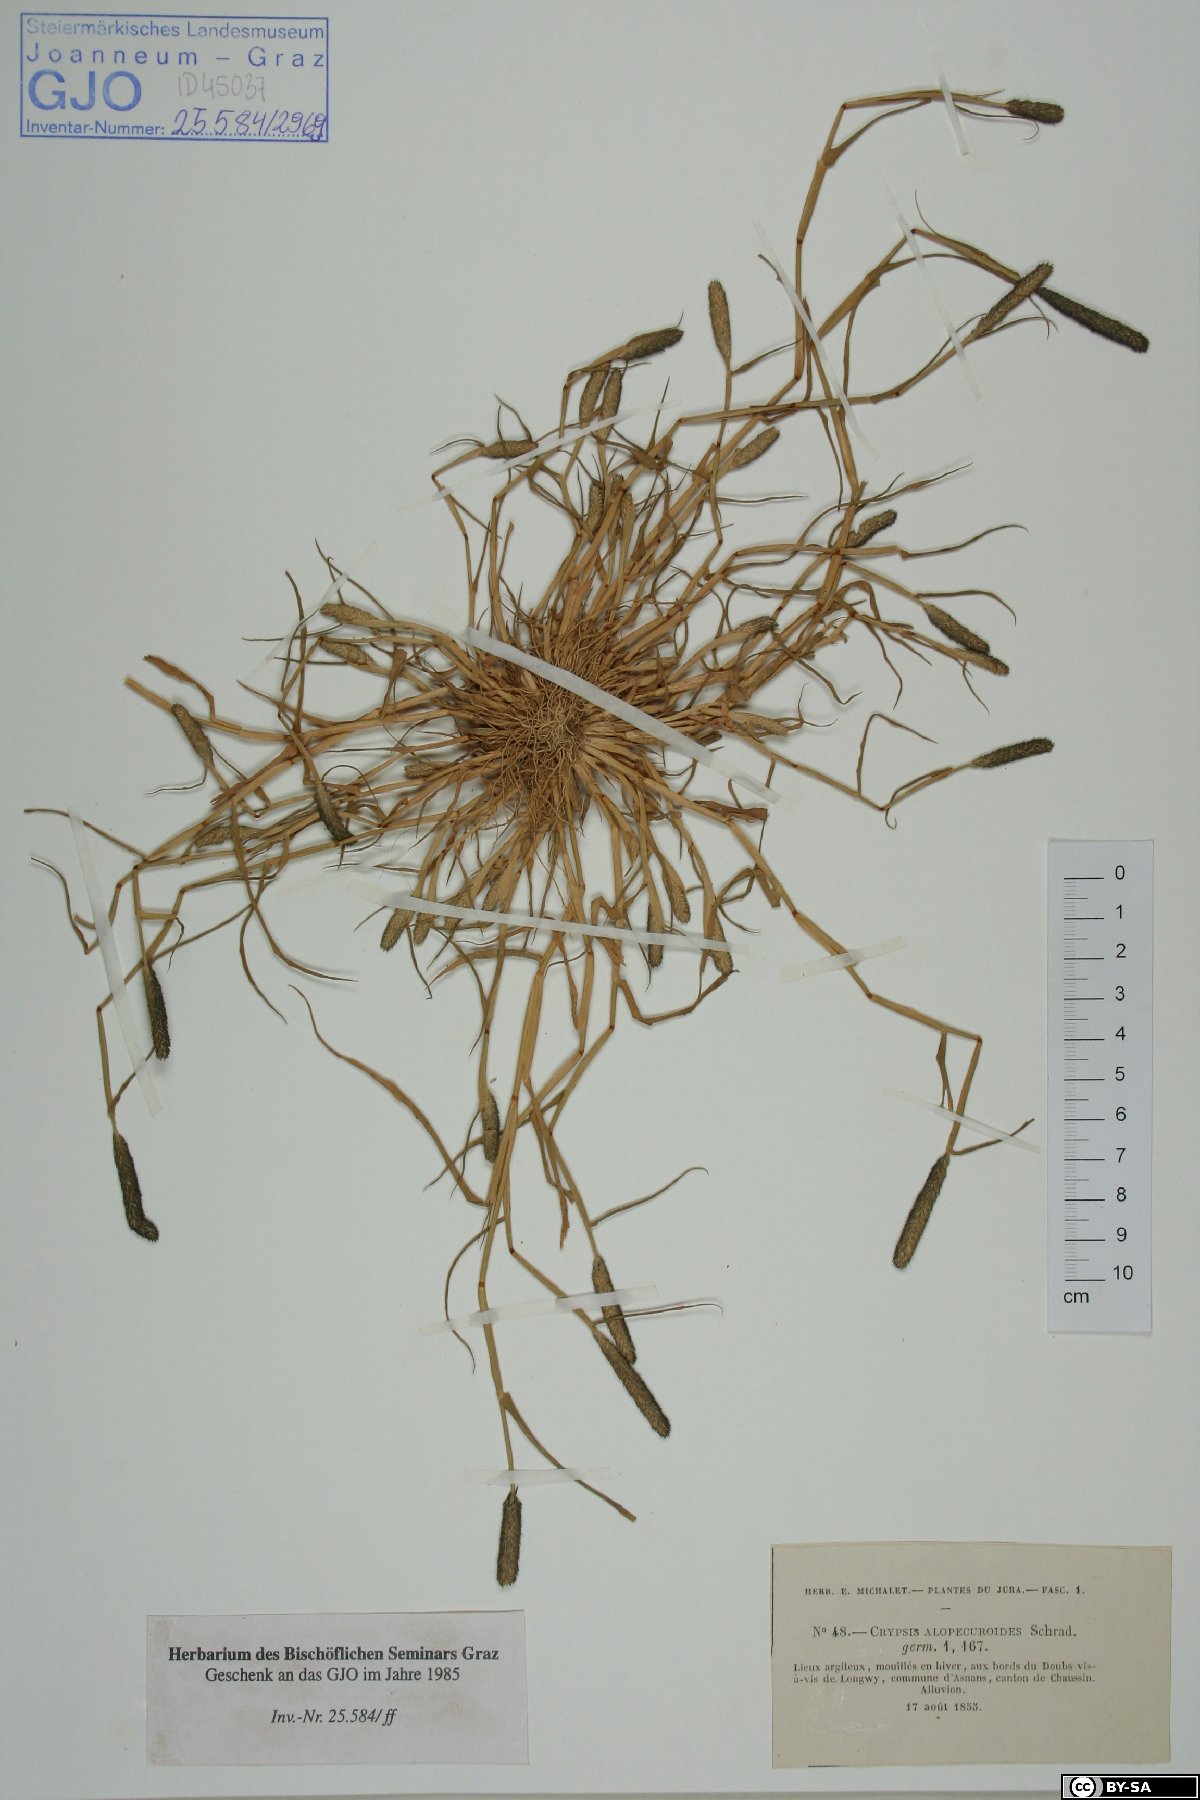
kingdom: Plantae
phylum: Tracheophyta
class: Liliopsida
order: Poales
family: Poaceae
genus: Sporobolus
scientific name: Sporobolus alopecuroides
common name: Foxtail pricklegrass
